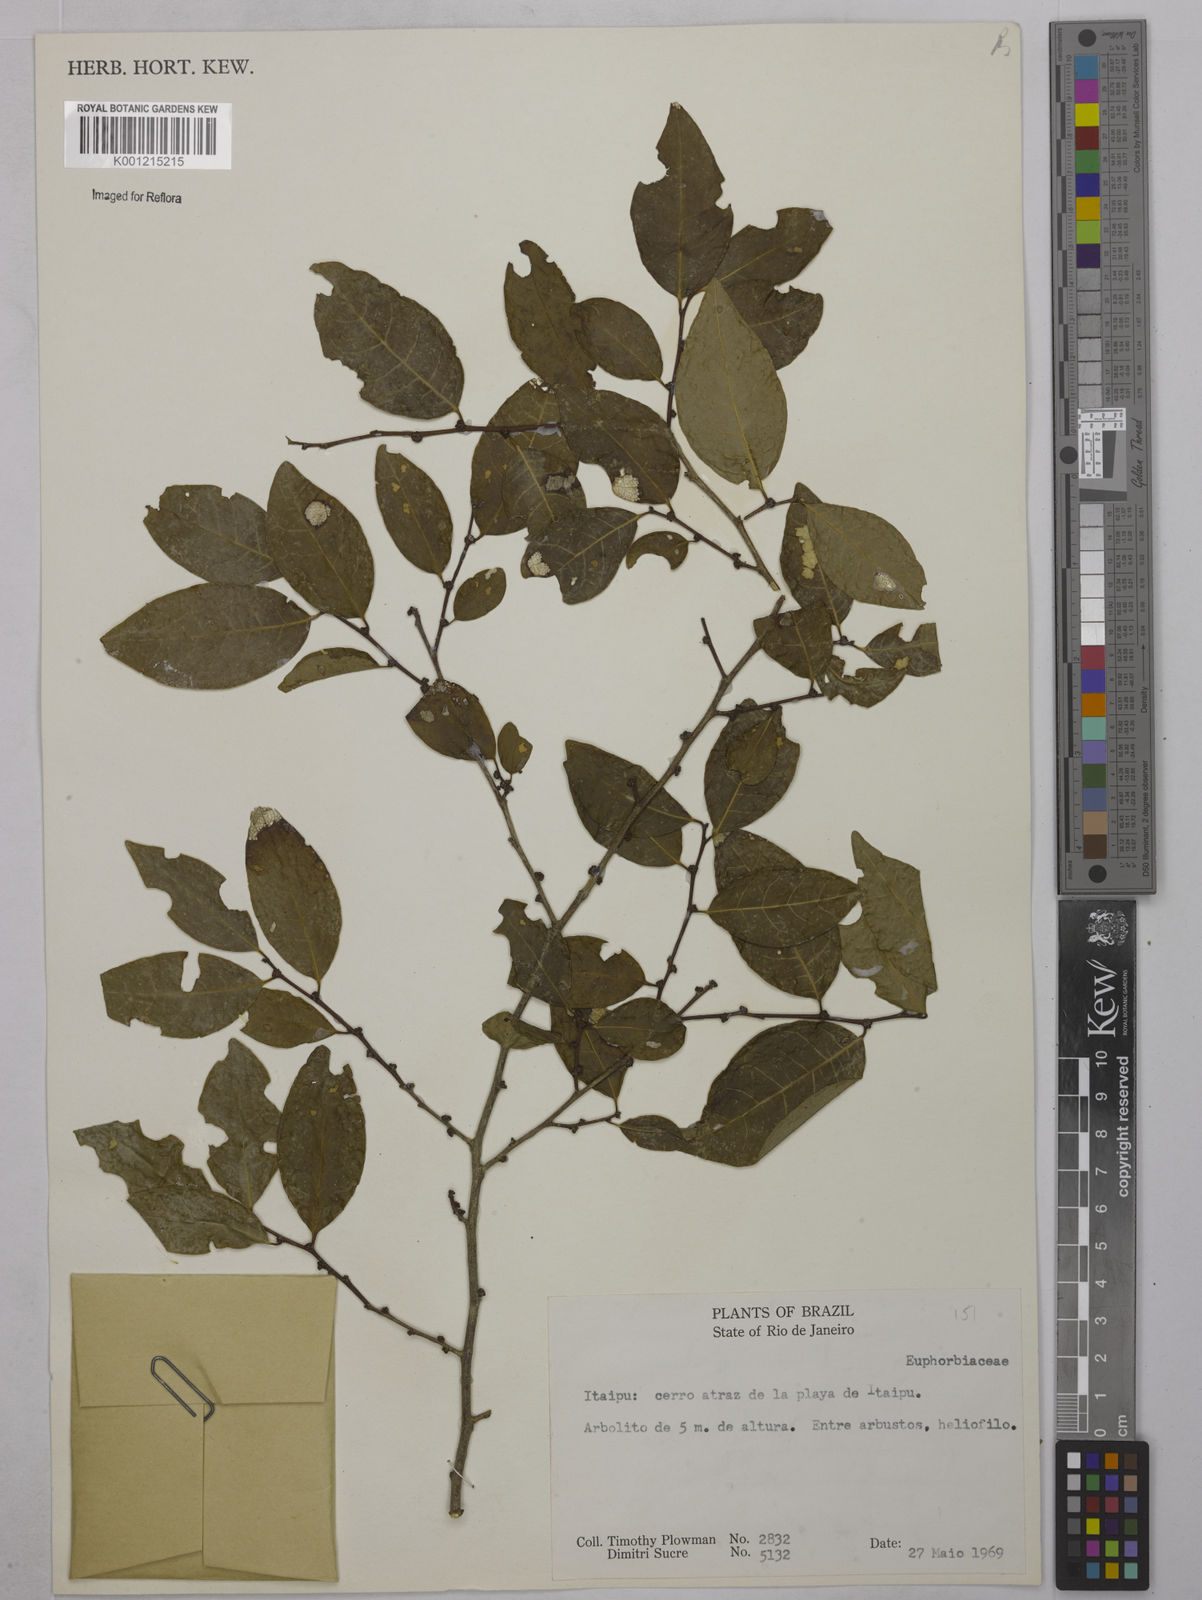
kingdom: Plantae
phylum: Tracheophyta
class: Magnoliopsida
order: Malpighiales
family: Euphorbiaceae
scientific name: Euphorbiaceae
